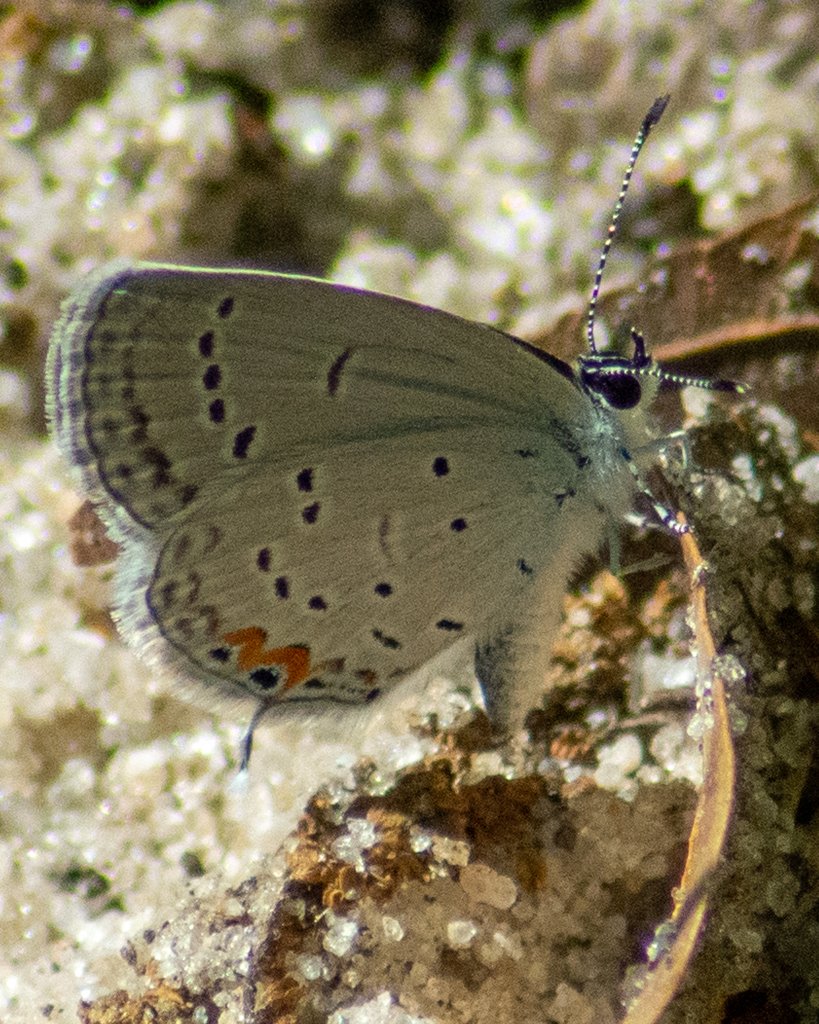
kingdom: Animalia
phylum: Arthropoda
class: Insecta
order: Lepidoptera
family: Lycaenidae
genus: Elkalyce
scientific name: Elkalyce comyntas
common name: Eastern Tailed-Blue
